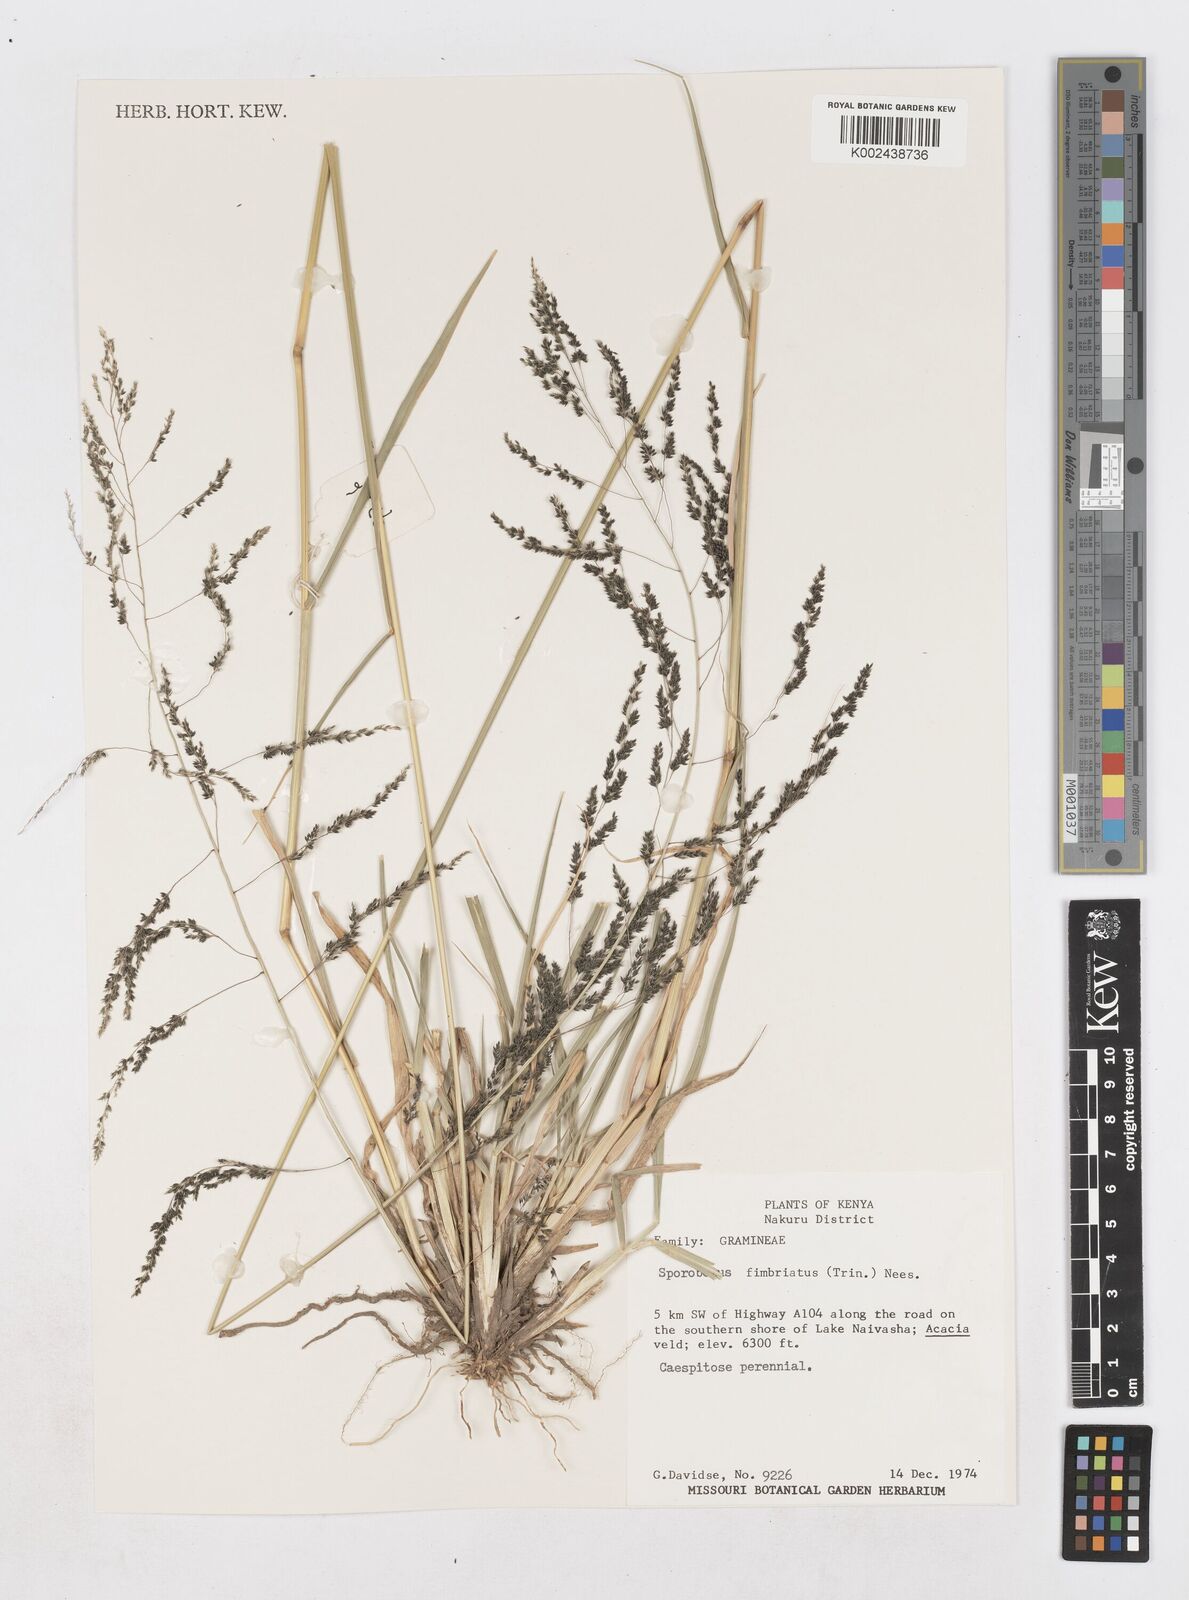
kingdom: Plantae
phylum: Tracheophyta
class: Liliopsida
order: Poales
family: Poaceae
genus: Sporobolus
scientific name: Sporobolus fimbriatus
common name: Fringed dropseed
